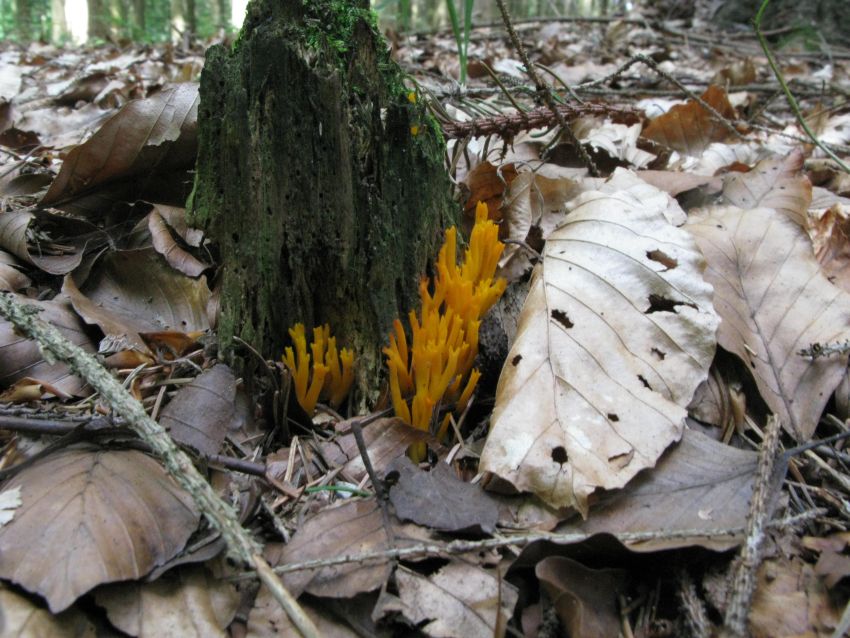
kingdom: Fungi
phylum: Basidiomycota
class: Dacrymycetes
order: Dacrymycetales
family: Dacrymycetaceae
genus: Calocera
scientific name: Calocera viscosa
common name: almindelig guldgaffel
